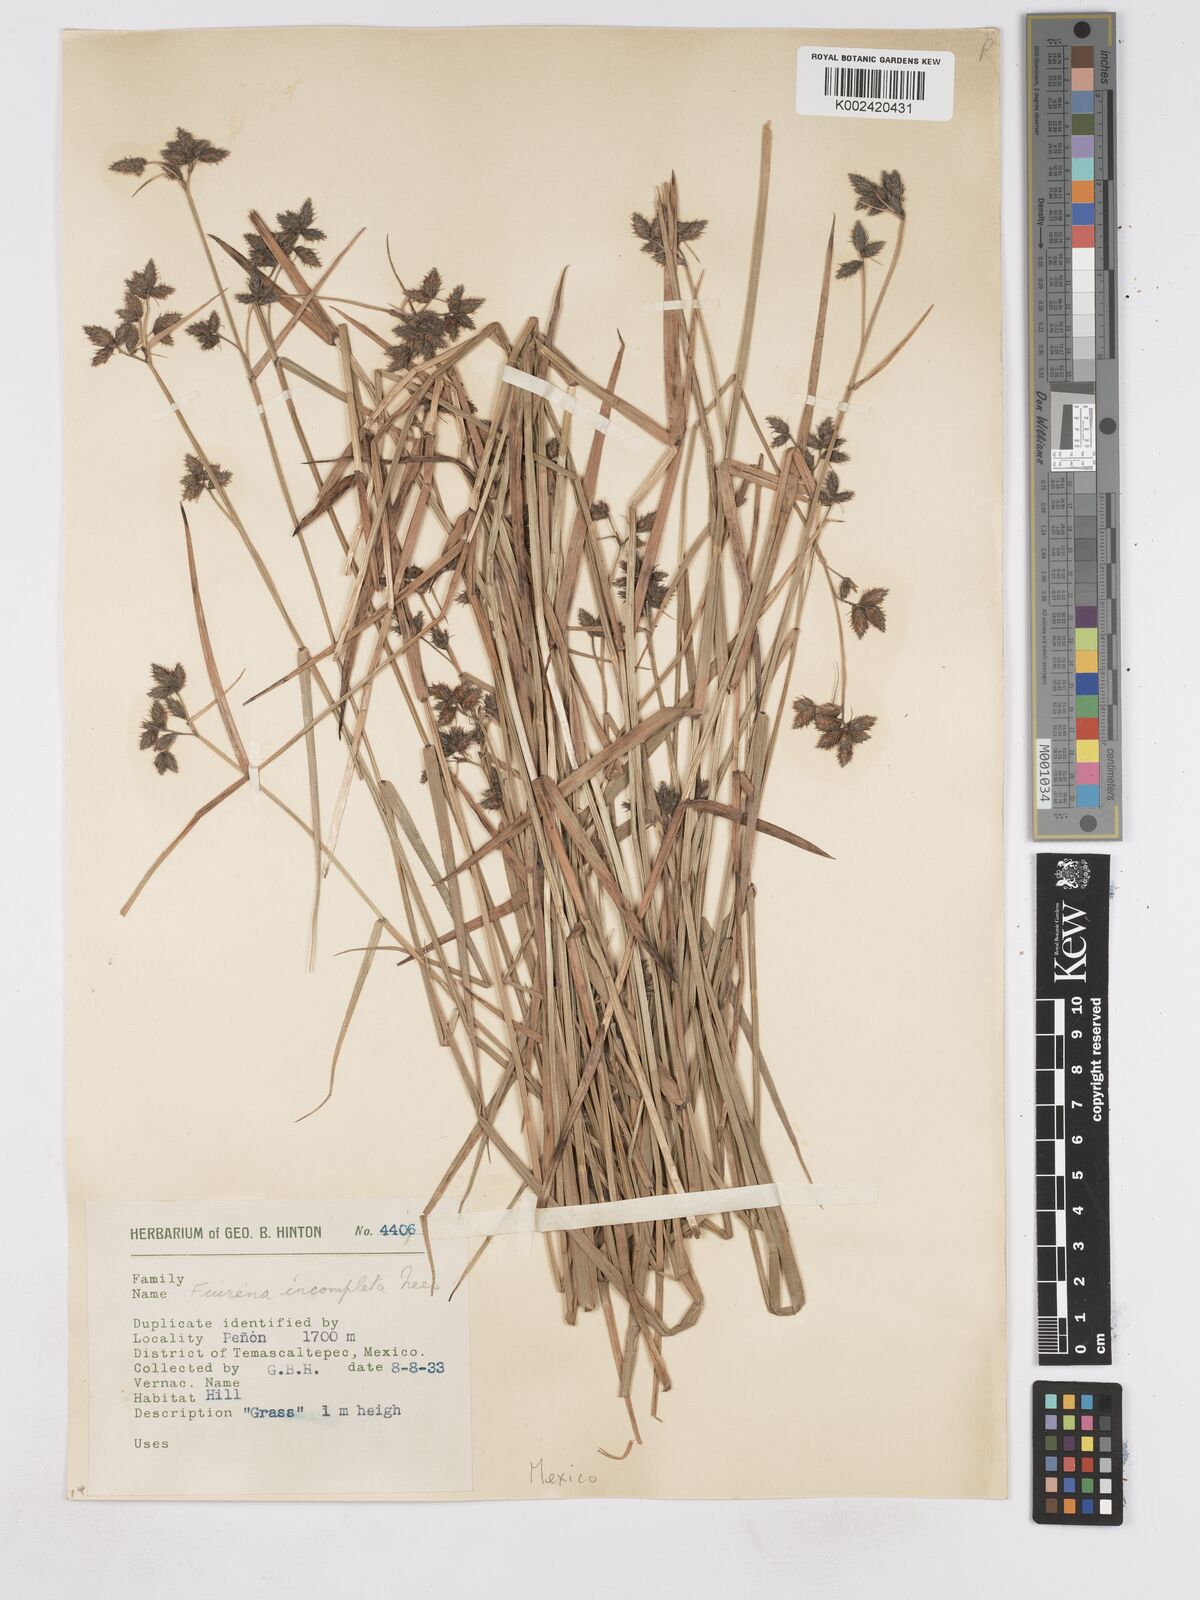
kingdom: Plantae
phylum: Tracheophyta
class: Liliopsida
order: Poales
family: Cyperaceae
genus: Fuirena
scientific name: Fuirena incompleta
